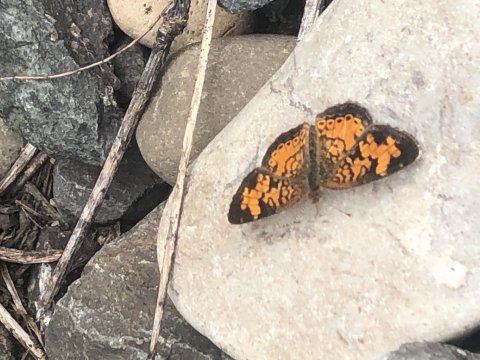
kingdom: Animalia
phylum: Arthropoda
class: Insecta
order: Lepidoptera
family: Nymphalidae
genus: Phyciodes
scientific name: Phyciodes
